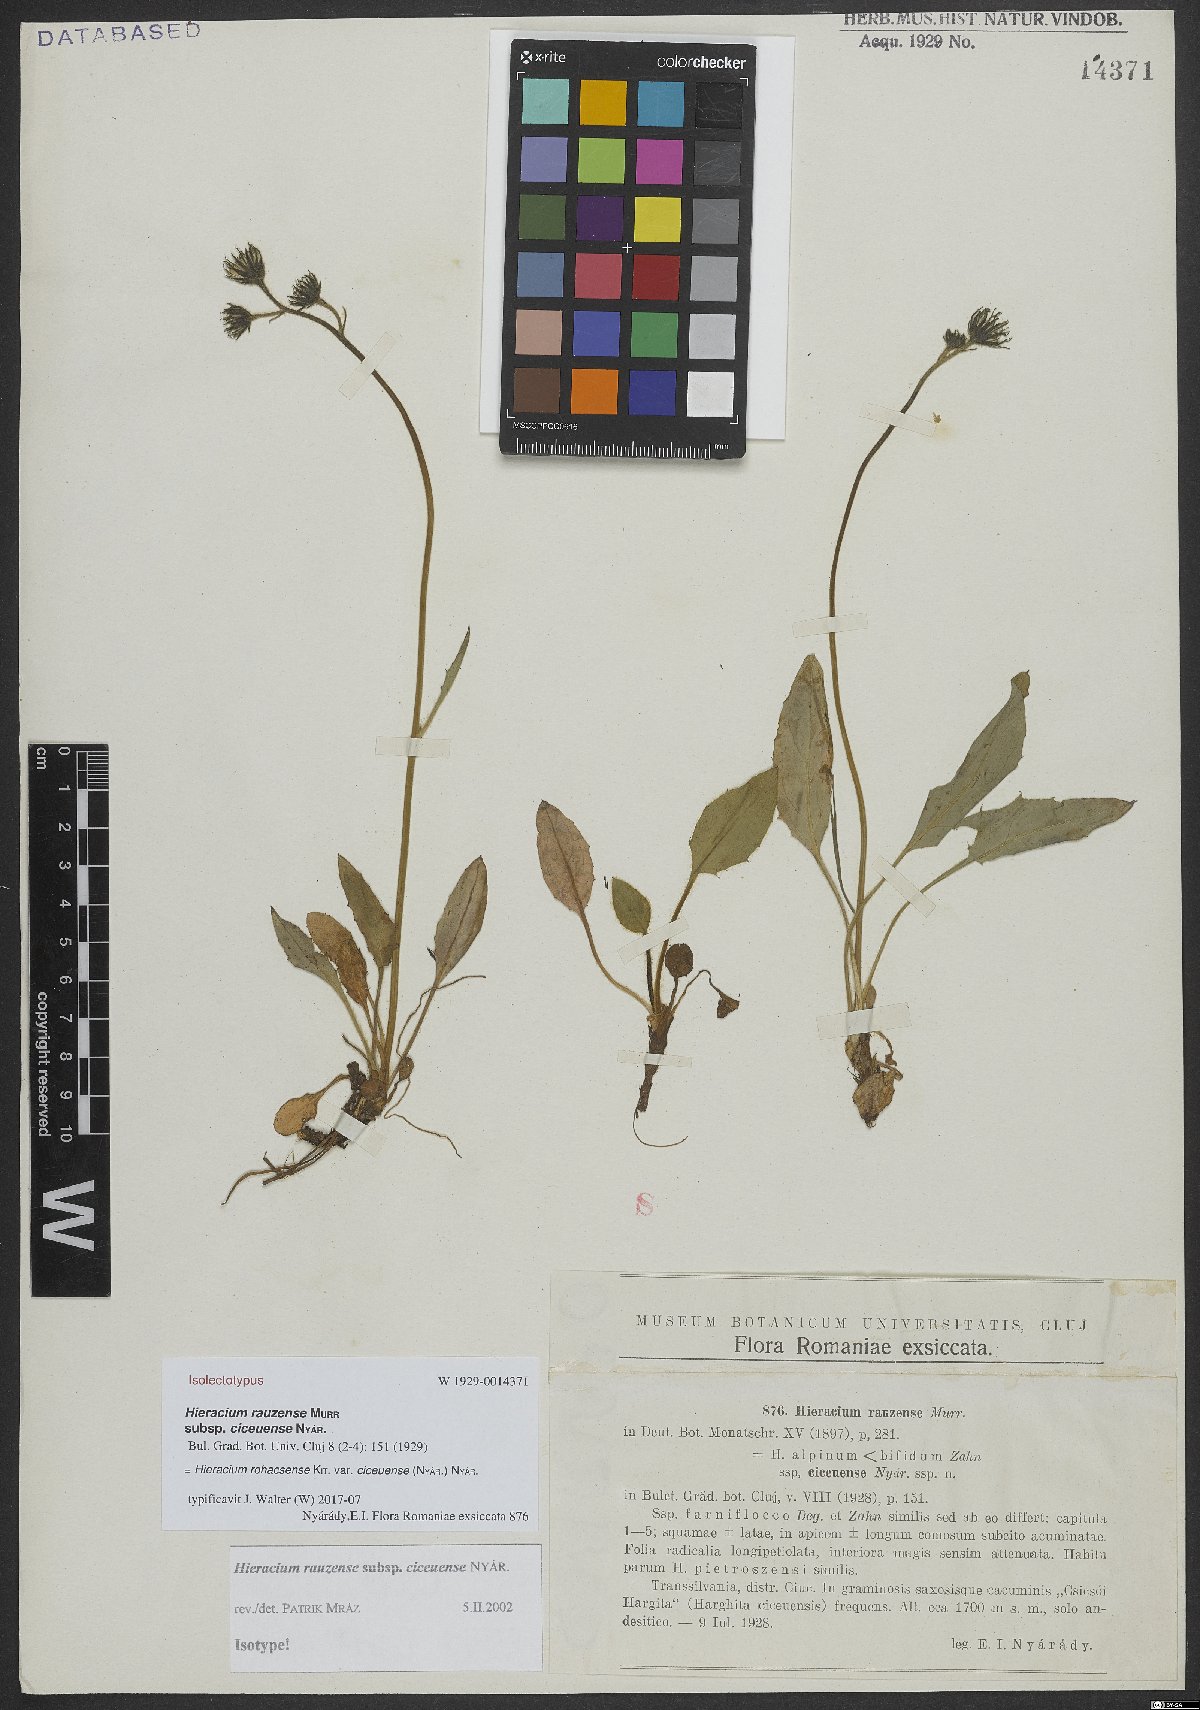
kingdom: Plantae
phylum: Tracheophyta
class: Magnoliopsida
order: Asterales
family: Asteraceae
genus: Hieracium
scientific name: Hieracium rohacsense
